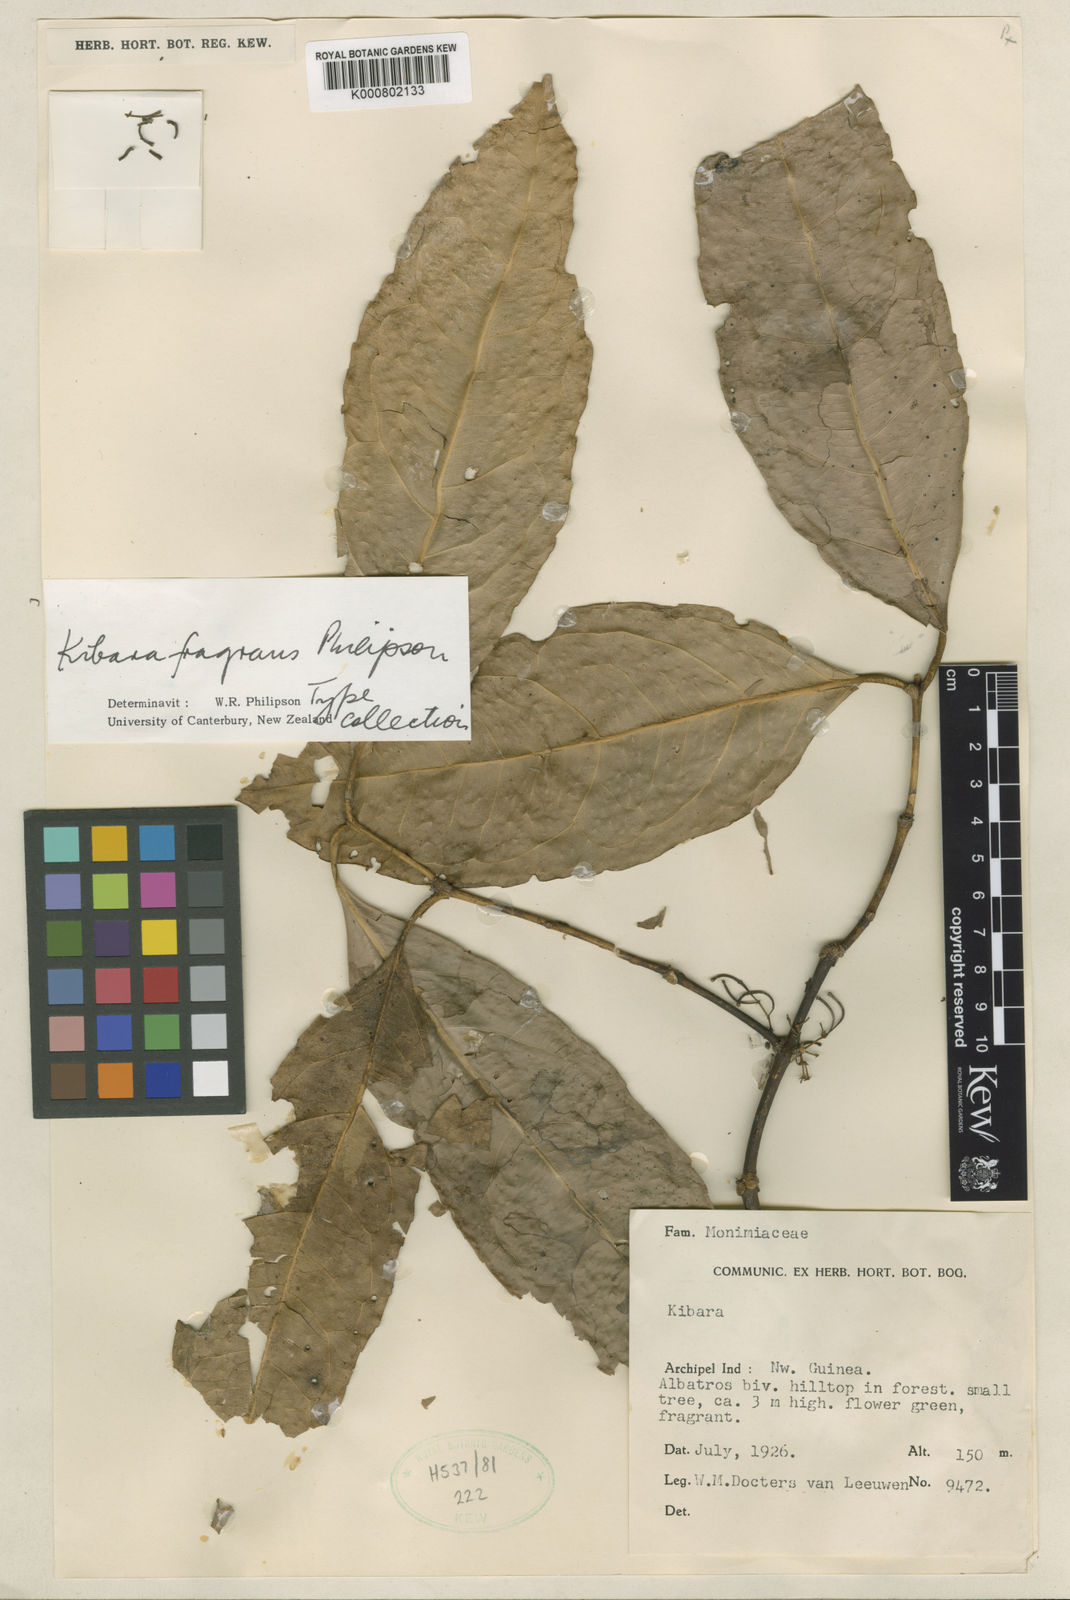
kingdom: Plantae
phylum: Tracheophyta
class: Magnoliopsida
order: Laurales
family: Monimiaceae
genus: Kibara
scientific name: Kibara fragrans
